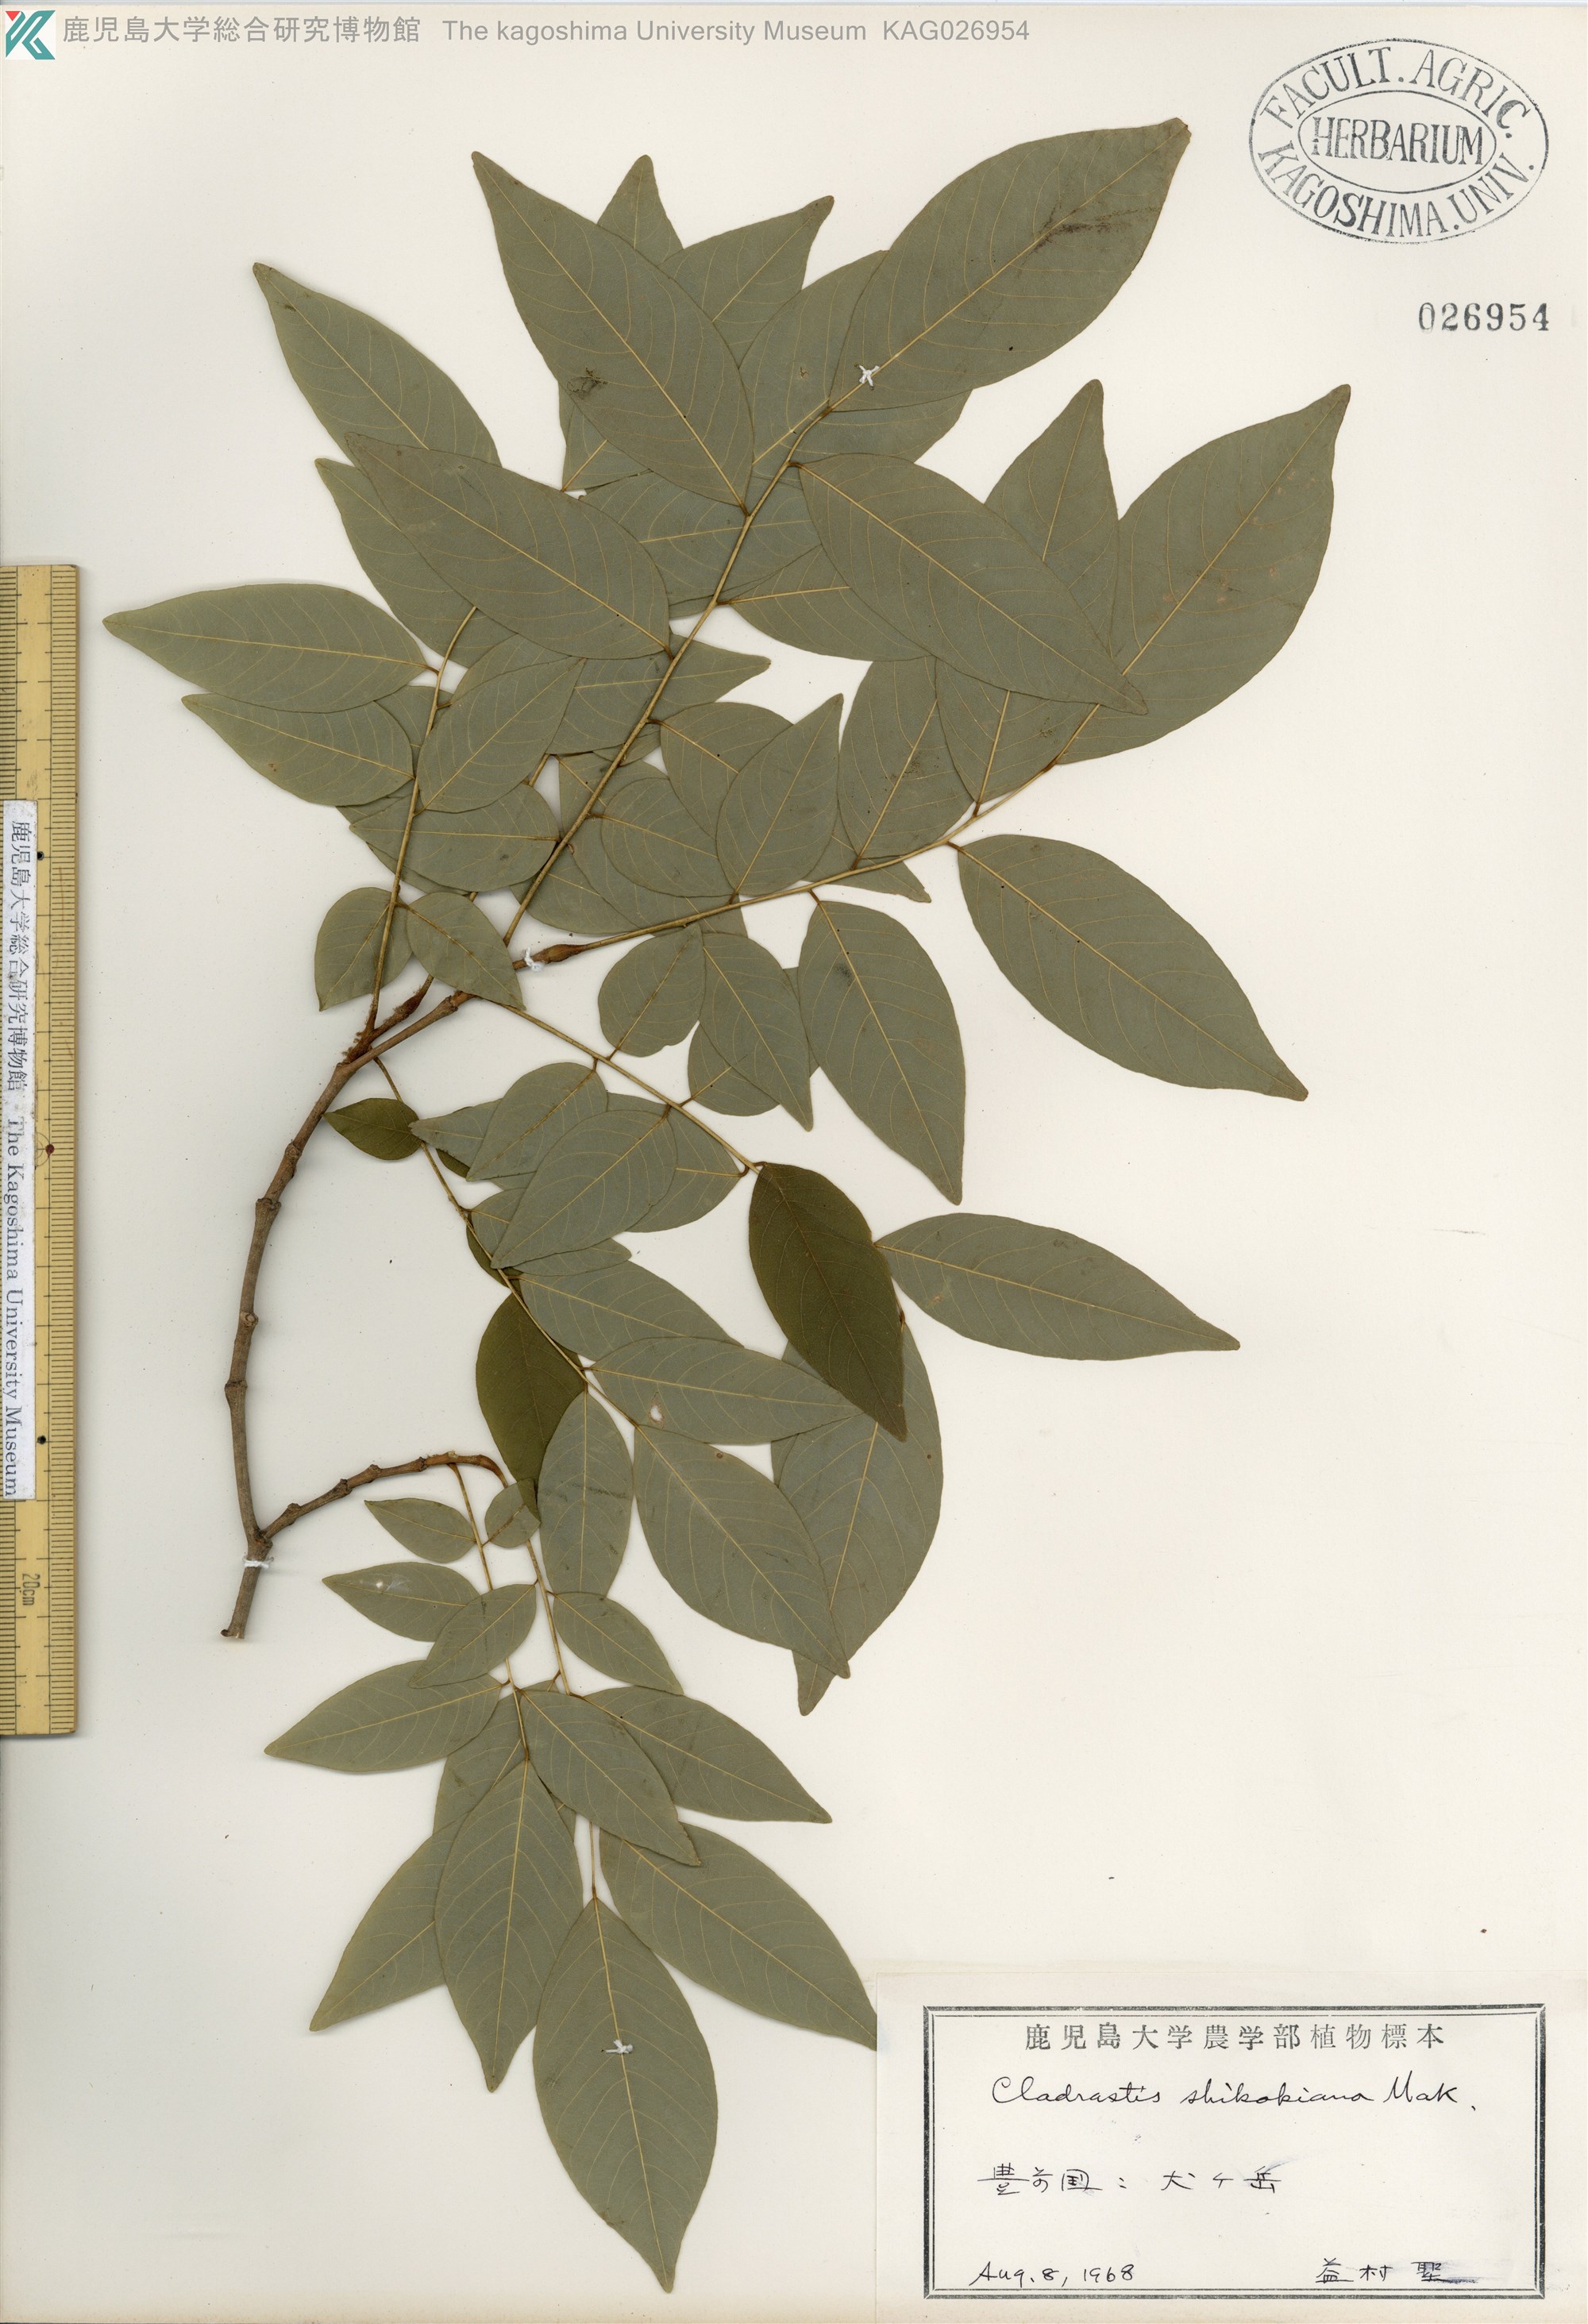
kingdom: Plantae
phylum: Tracheophyta
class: Magnoliopsida
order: Fabales
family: Fabaceae
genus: Cladrastis
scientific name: Cladrastis shikokiana
